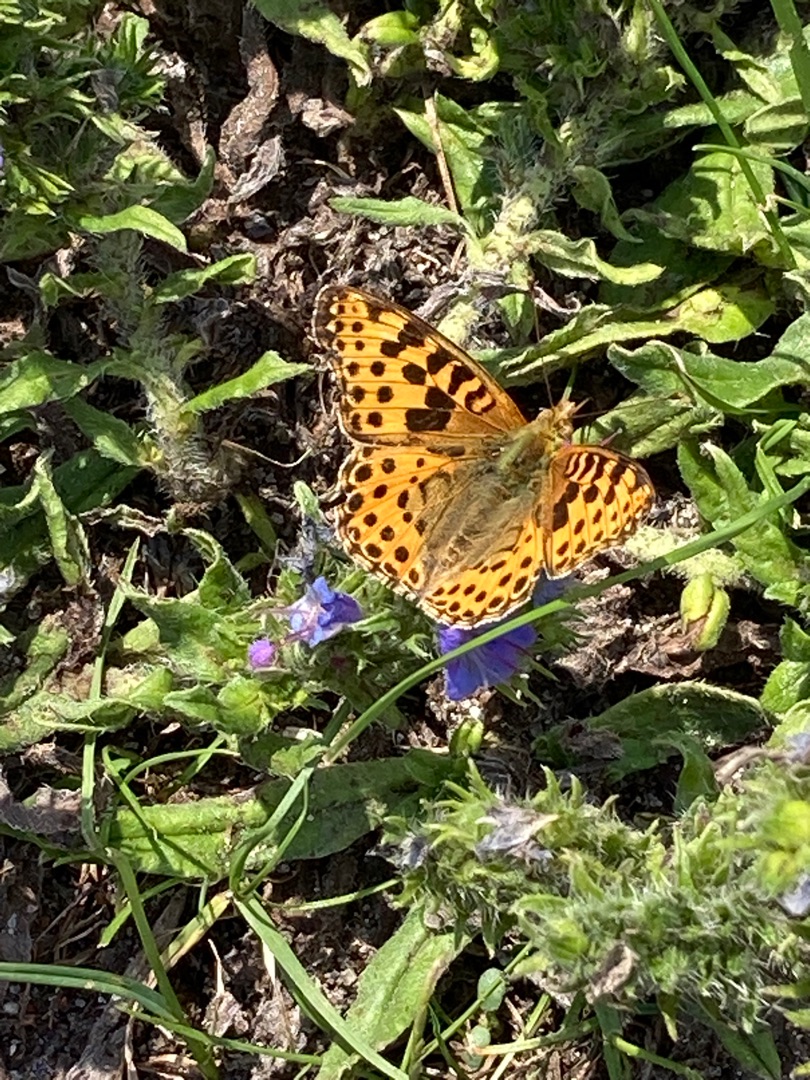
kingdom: Animalia
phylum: Arthropoda
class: Insecta
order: Lepidoptera
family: Nymphalidae
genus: Issoria
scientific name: Issoria lathonia
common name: Storplettet perlemorsommerfugl
